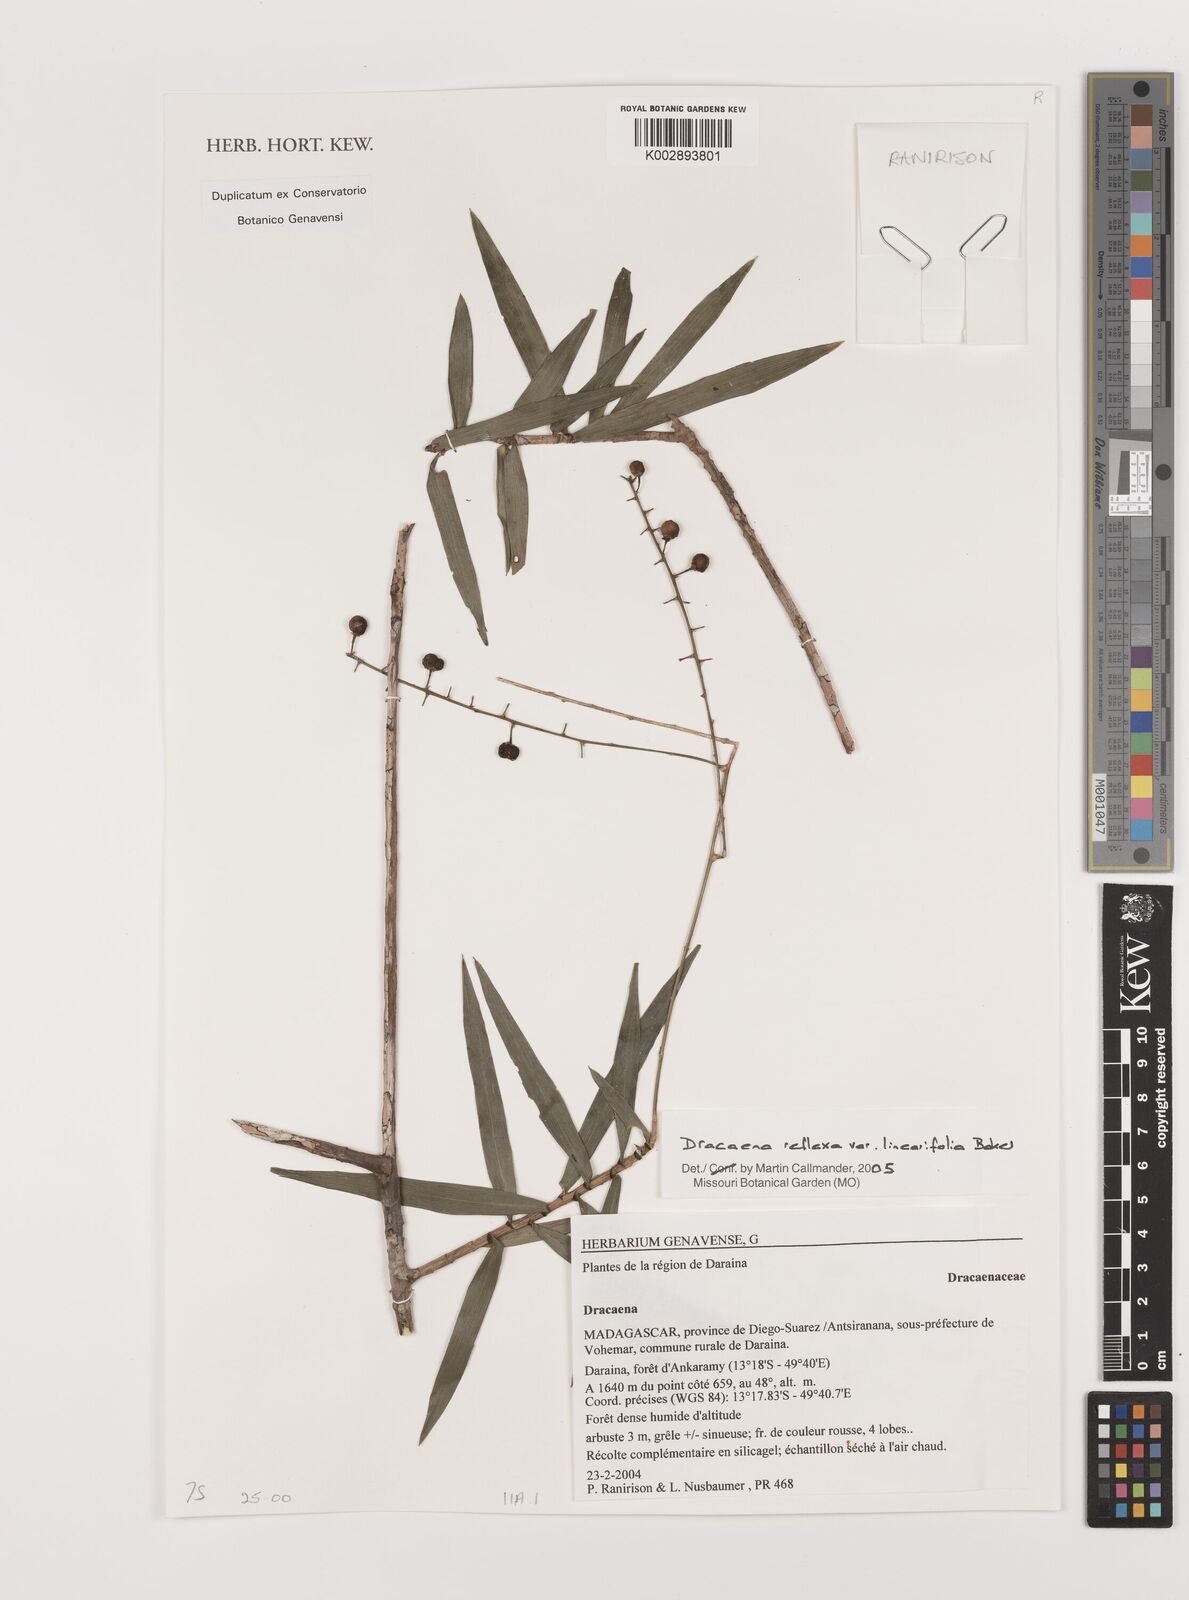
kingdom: Plantae
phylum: Tracheophyta
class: Liliopsida
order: Asparagales
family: Asparagaceae
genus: Dracaena
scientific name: Dracaena
